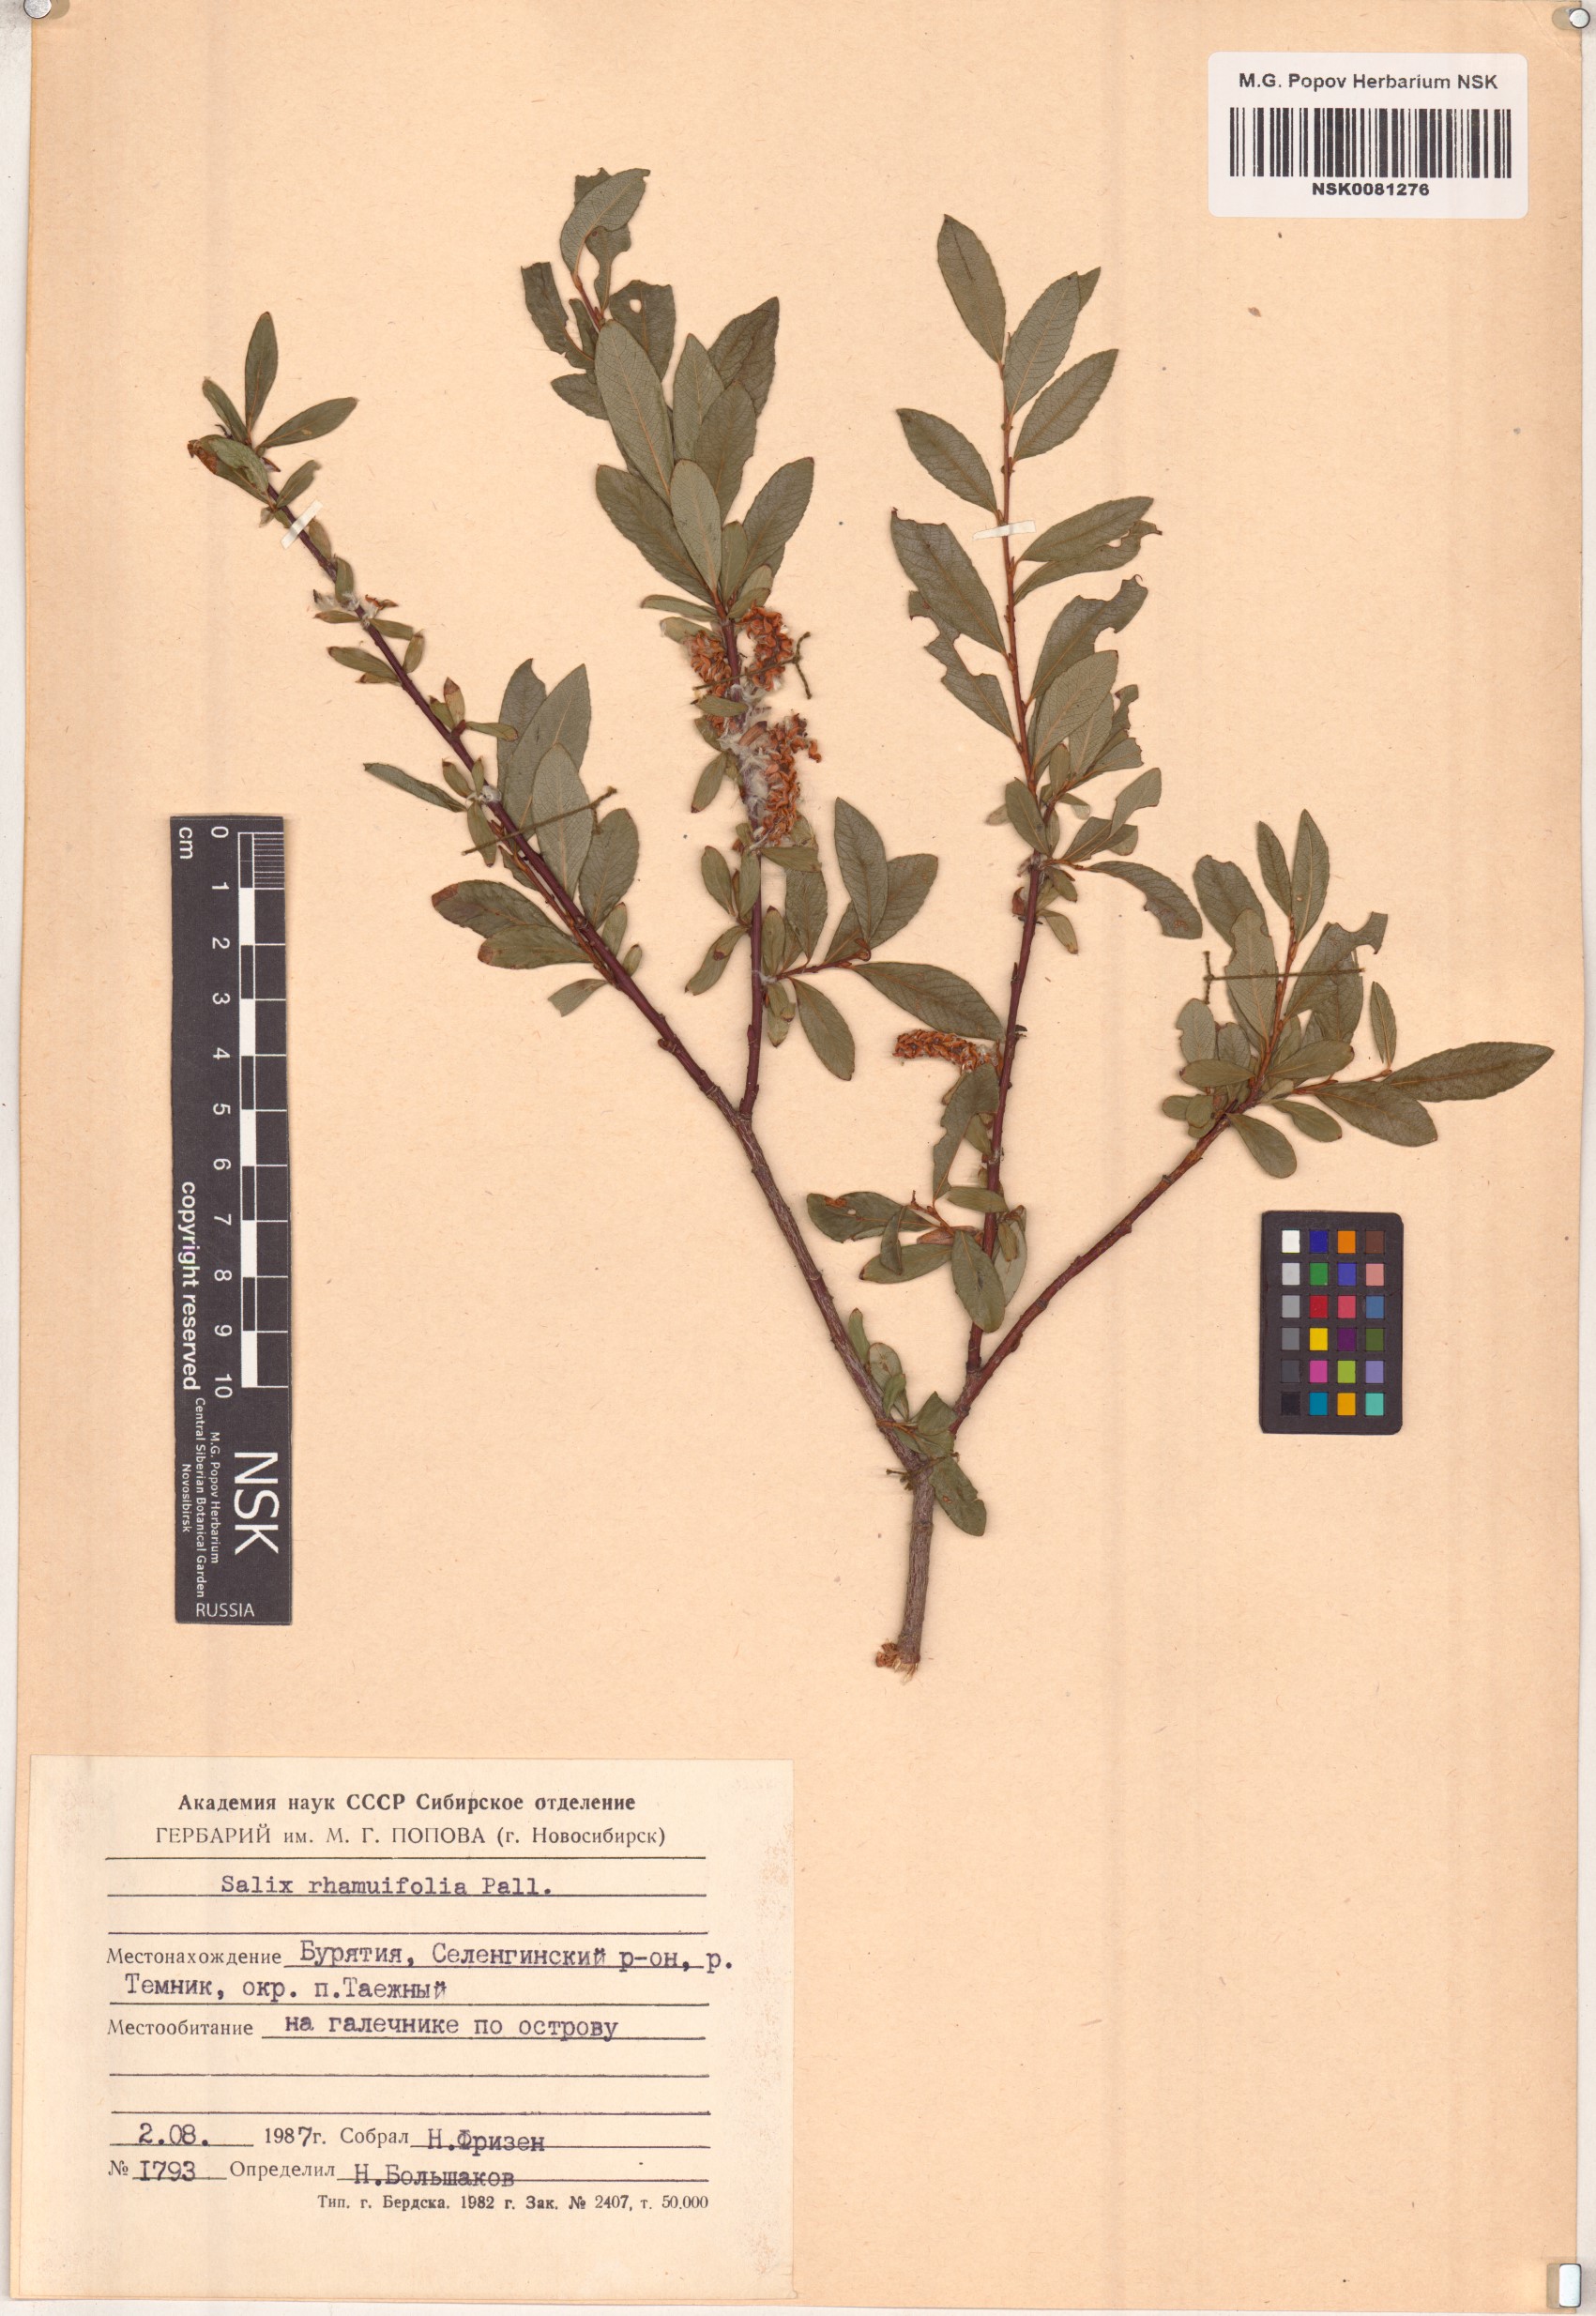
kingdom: Plantae
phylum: Tracheophyta
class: Magnoliopsida
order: Malpighiales
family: Salicaceae
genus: Salix
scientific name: Salix rhamnifolia
